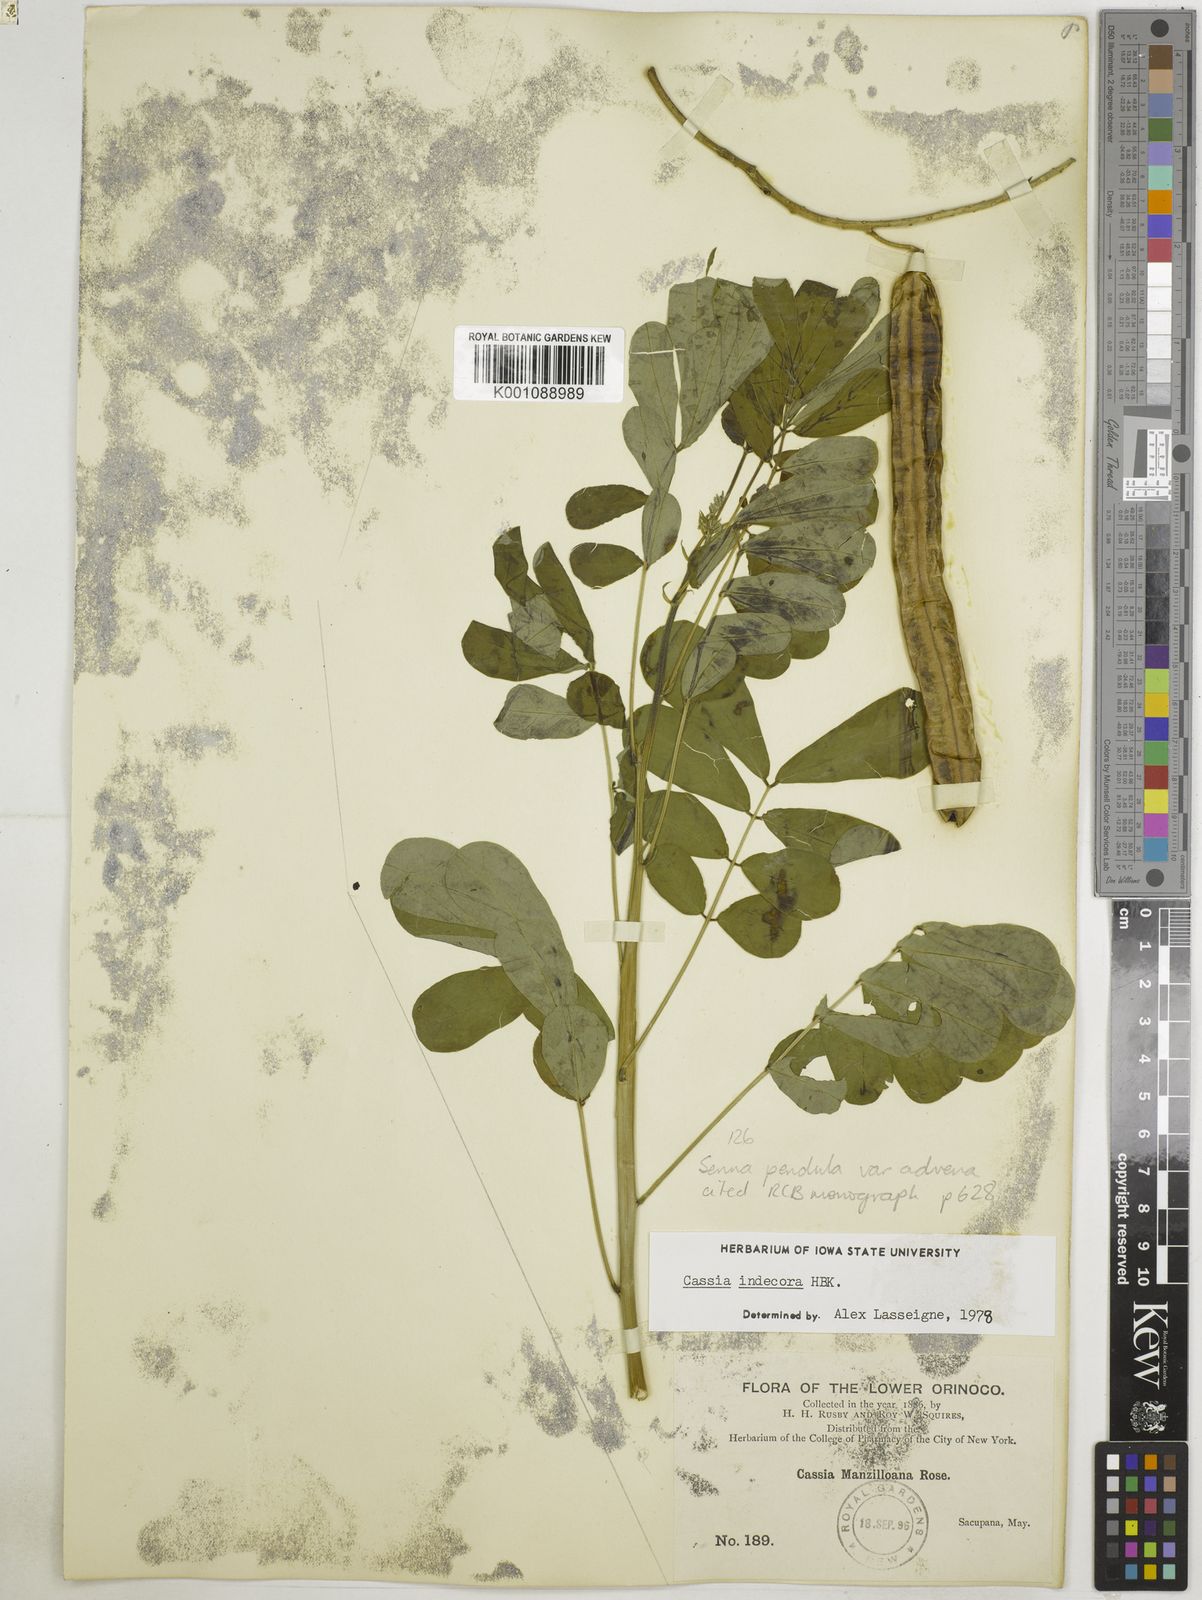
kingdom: Plantae
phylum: Tracheophyta
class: Magnoliopsida
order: Fabales
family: Fabaceae
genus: Senna
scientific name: Senna pendula
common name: Easter cassia
